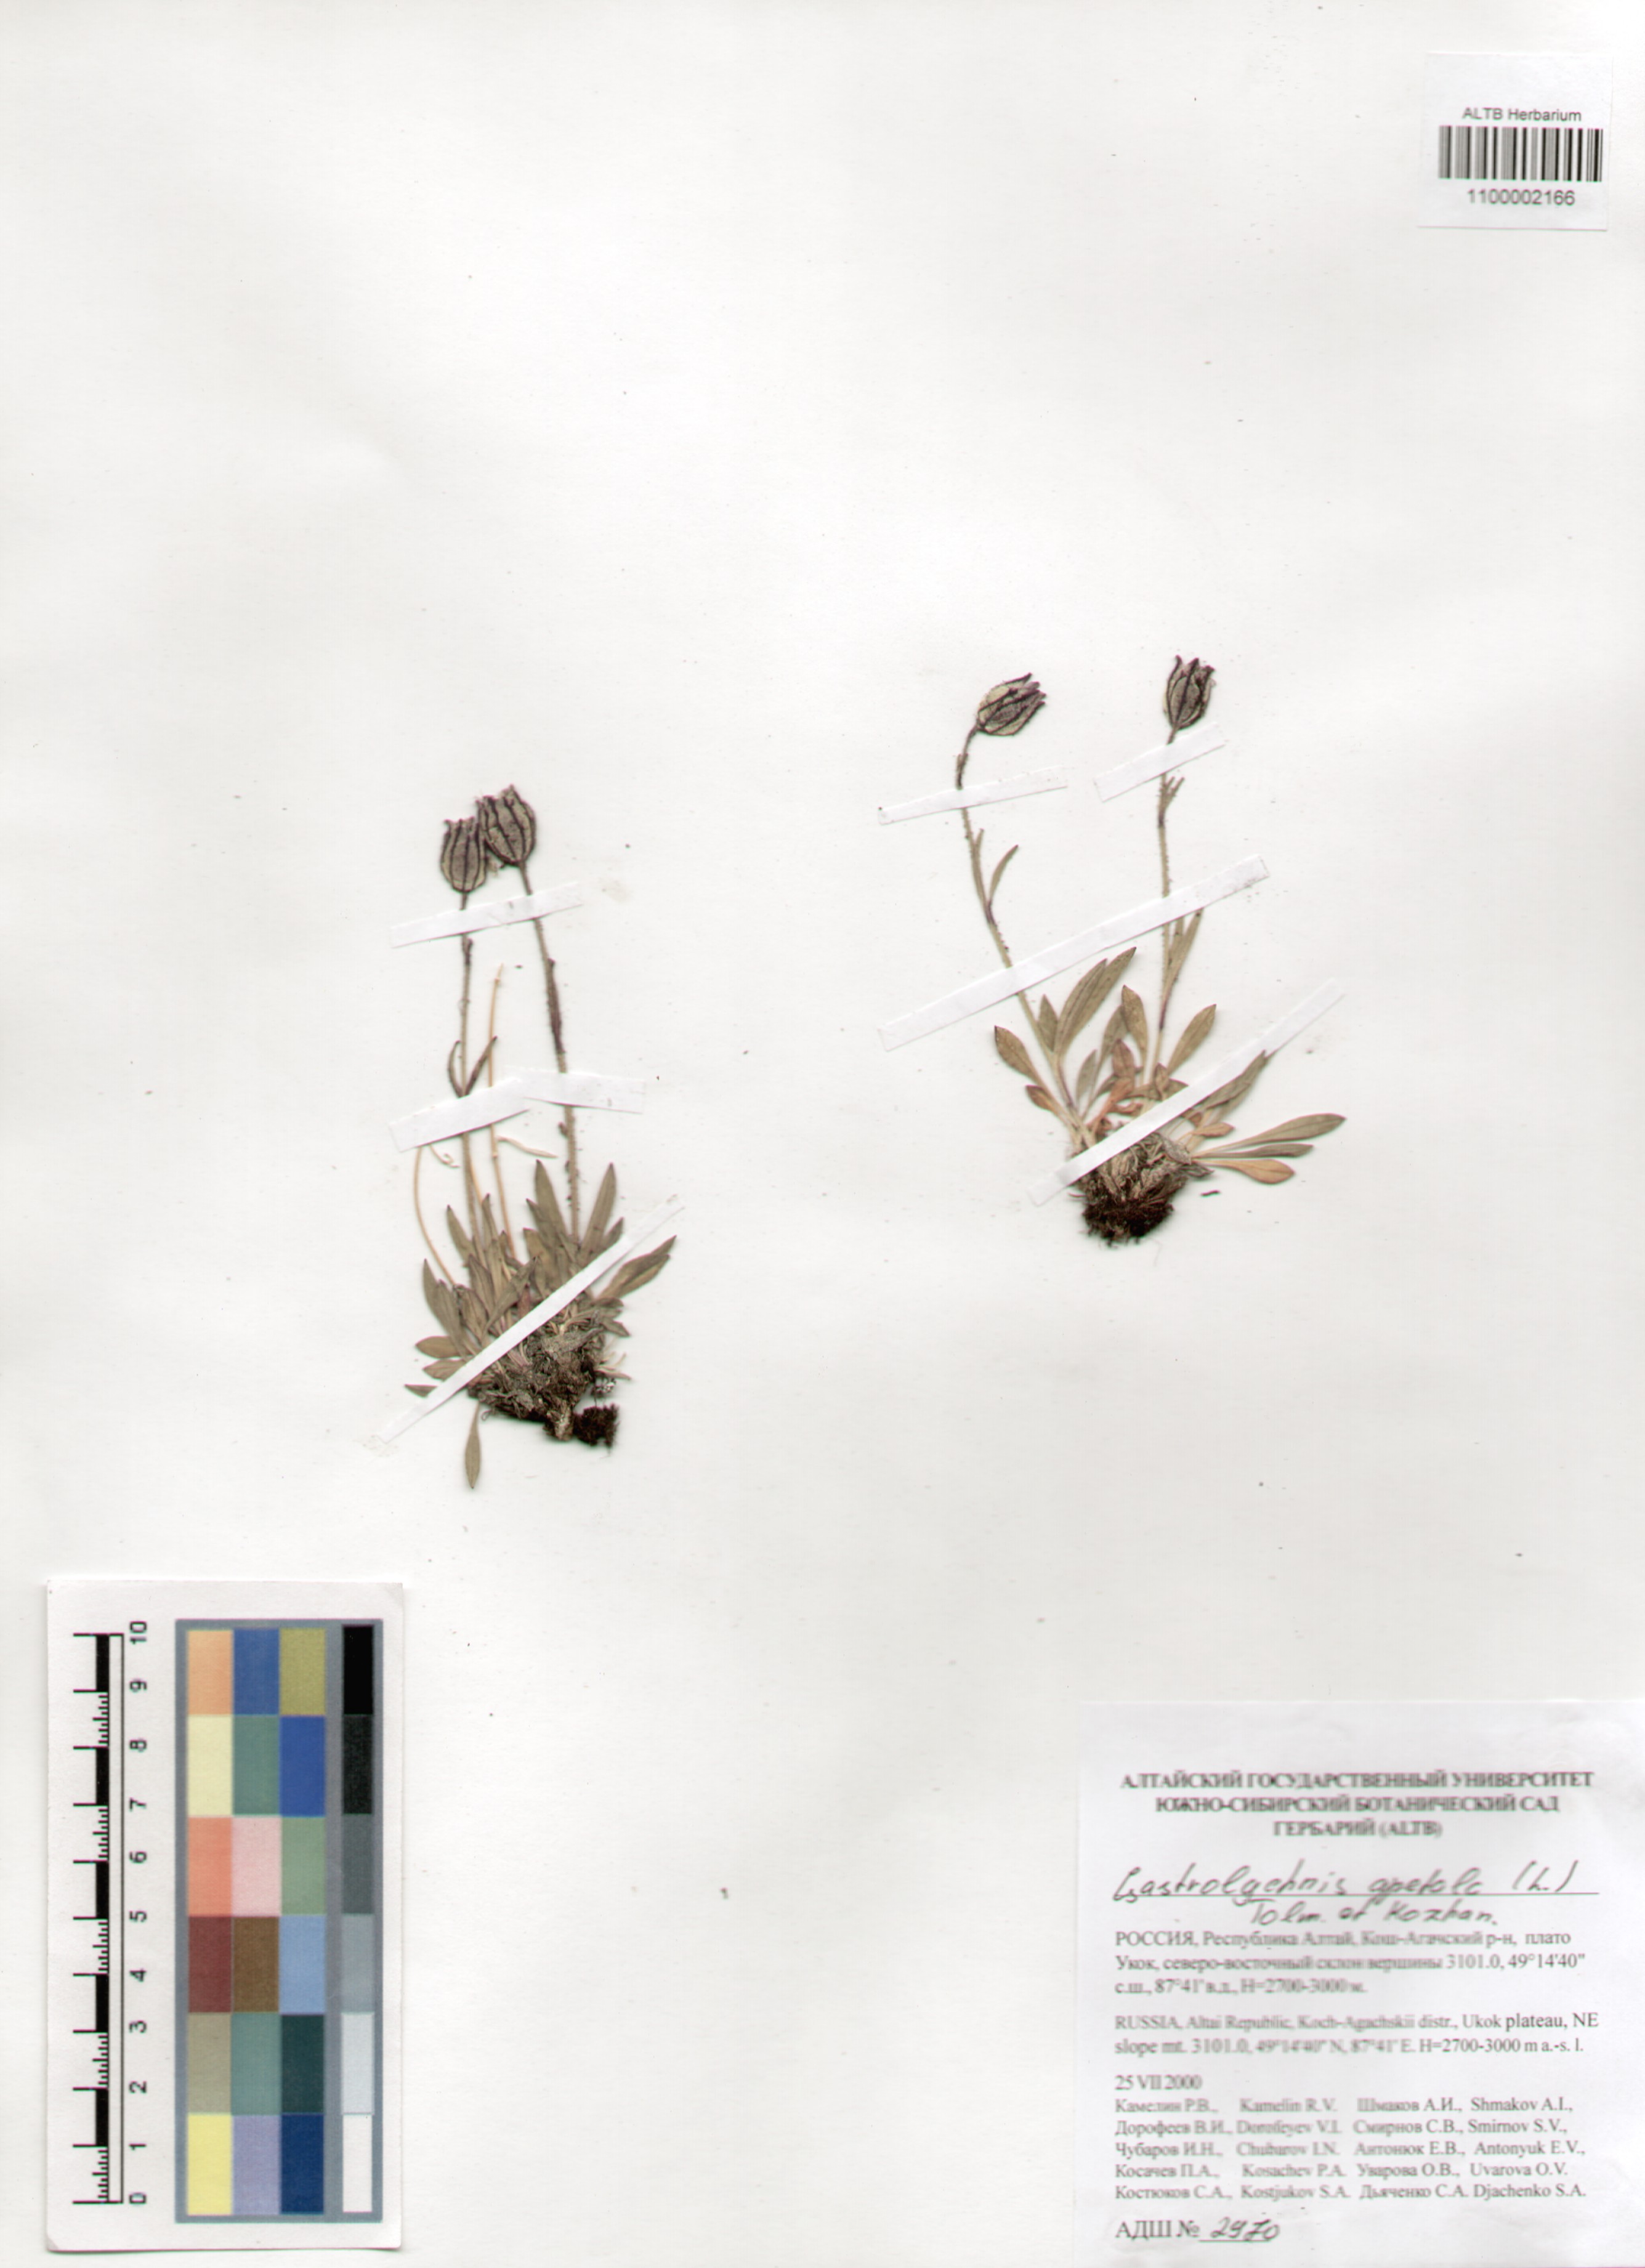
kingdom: Plantae
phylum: Tracheophyta
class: Magnoliopsida
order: Caryophyllales
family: Caryophyllaceae
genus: Silene
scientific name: Silene wahlbergella
